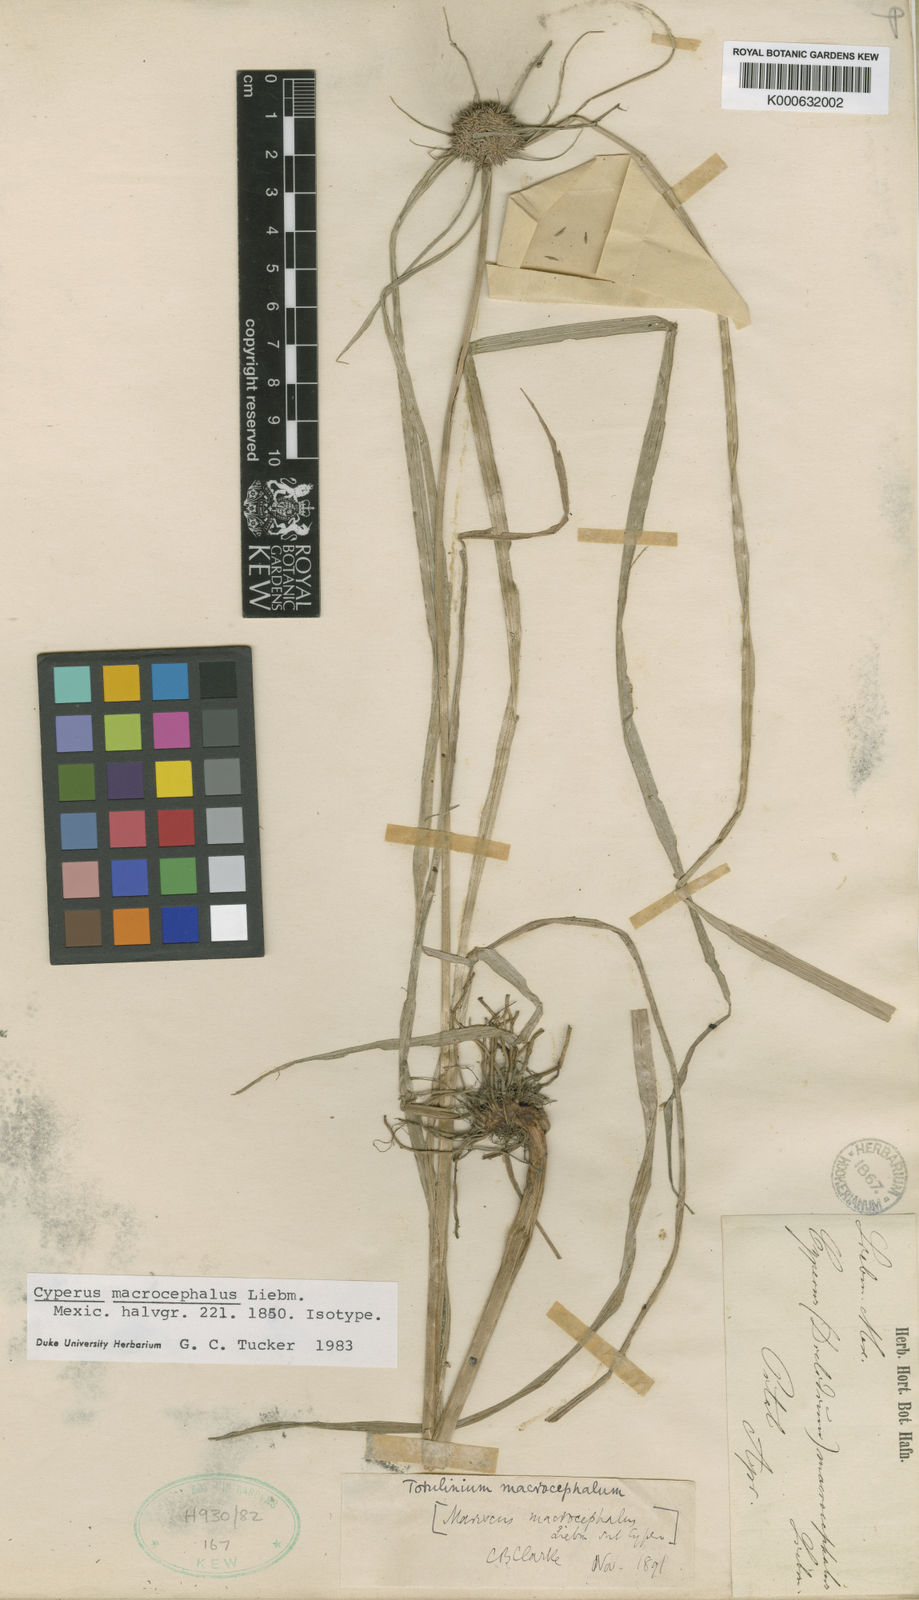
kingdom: Plantae
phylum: Tracheophyta
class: Liliopsida
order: Poales
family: Cyperaceae
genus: Cyperus
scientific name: Cyperus conglobatus
